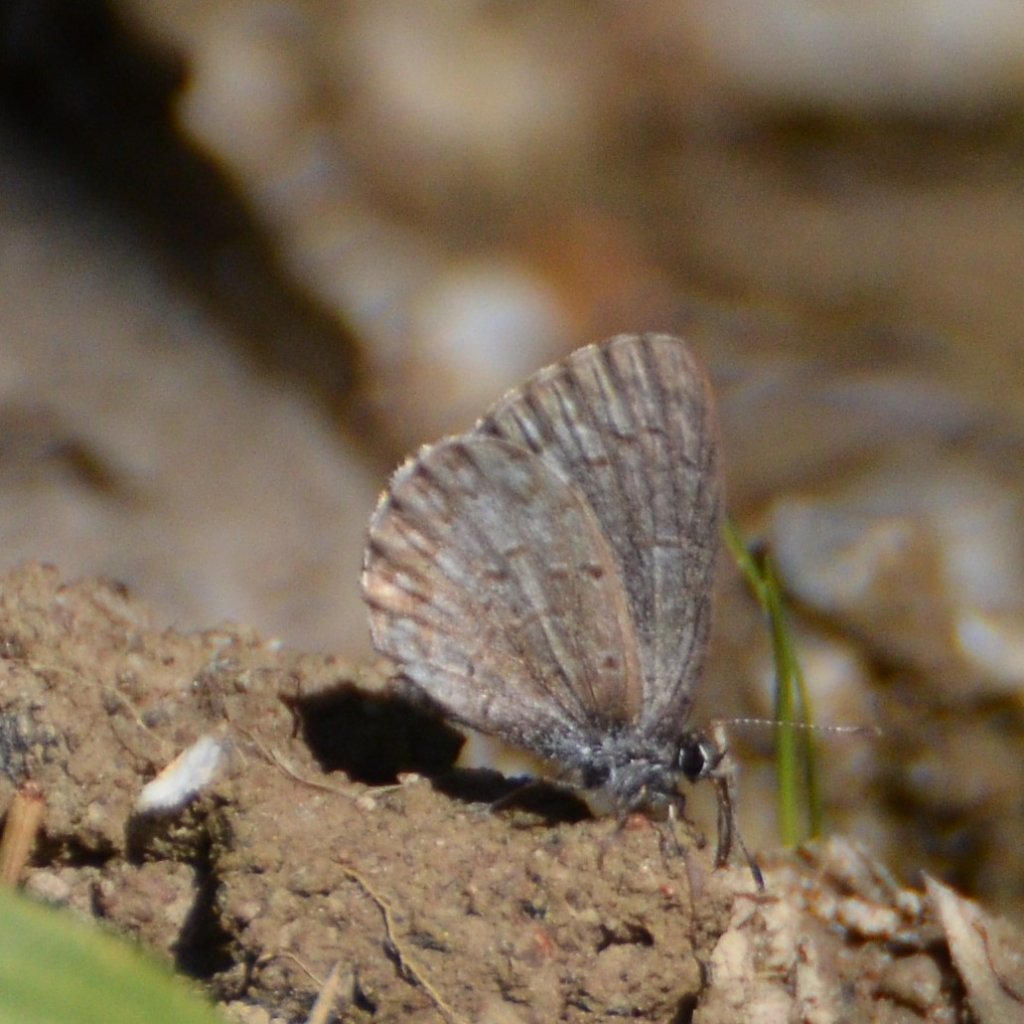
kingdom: Animalia
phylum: Arthropoda
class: Insecta
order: Lepidoptera
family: Lycaenidae
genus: Celastrina
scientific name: Celastrina lucia
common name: Northern Spring Azure
